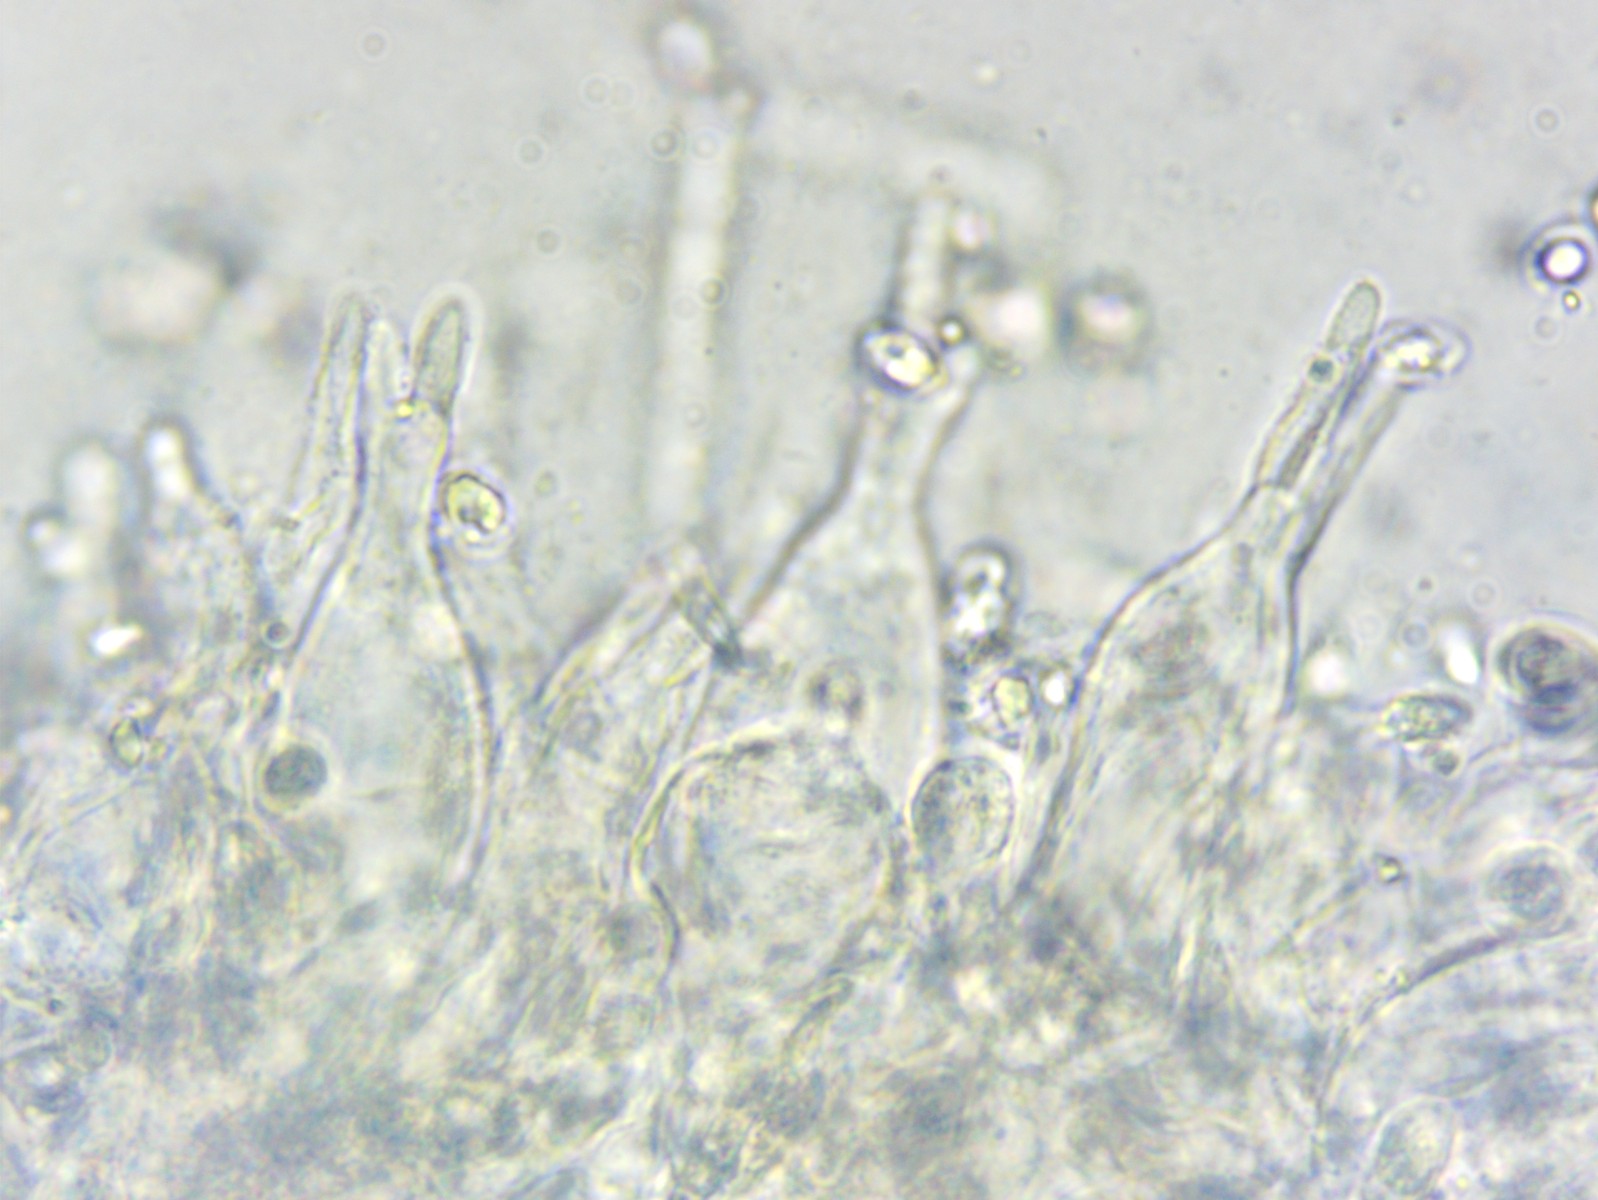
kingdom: Fungi
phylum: Basidiomycota
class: Agaricomycetes
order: Agaricales
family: Mycenaceae
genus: Mycena
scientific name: Mycena aetites
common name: plæne-huesvamp
